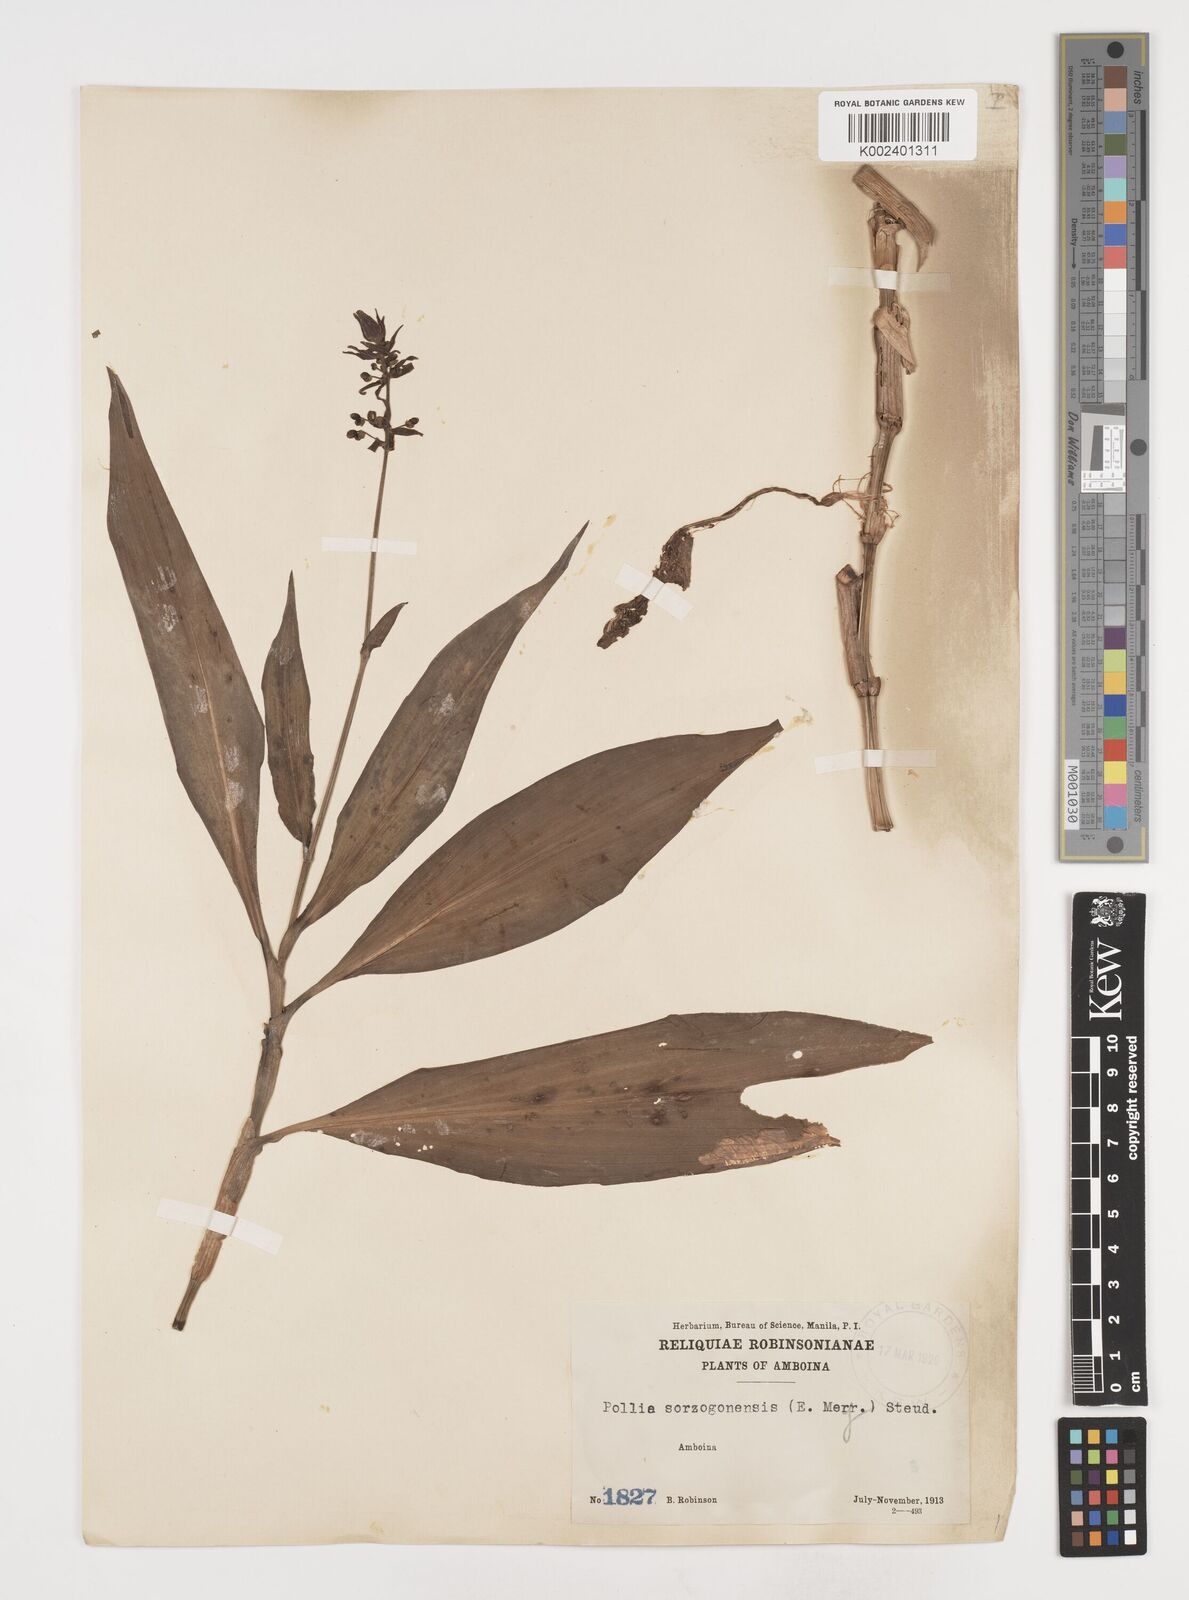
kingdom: Plantae
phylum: Tracheophyta
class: Liliopsida
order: Commelinales
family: Commelinaceae
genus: Pollia
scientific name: Pollia secundiflora
